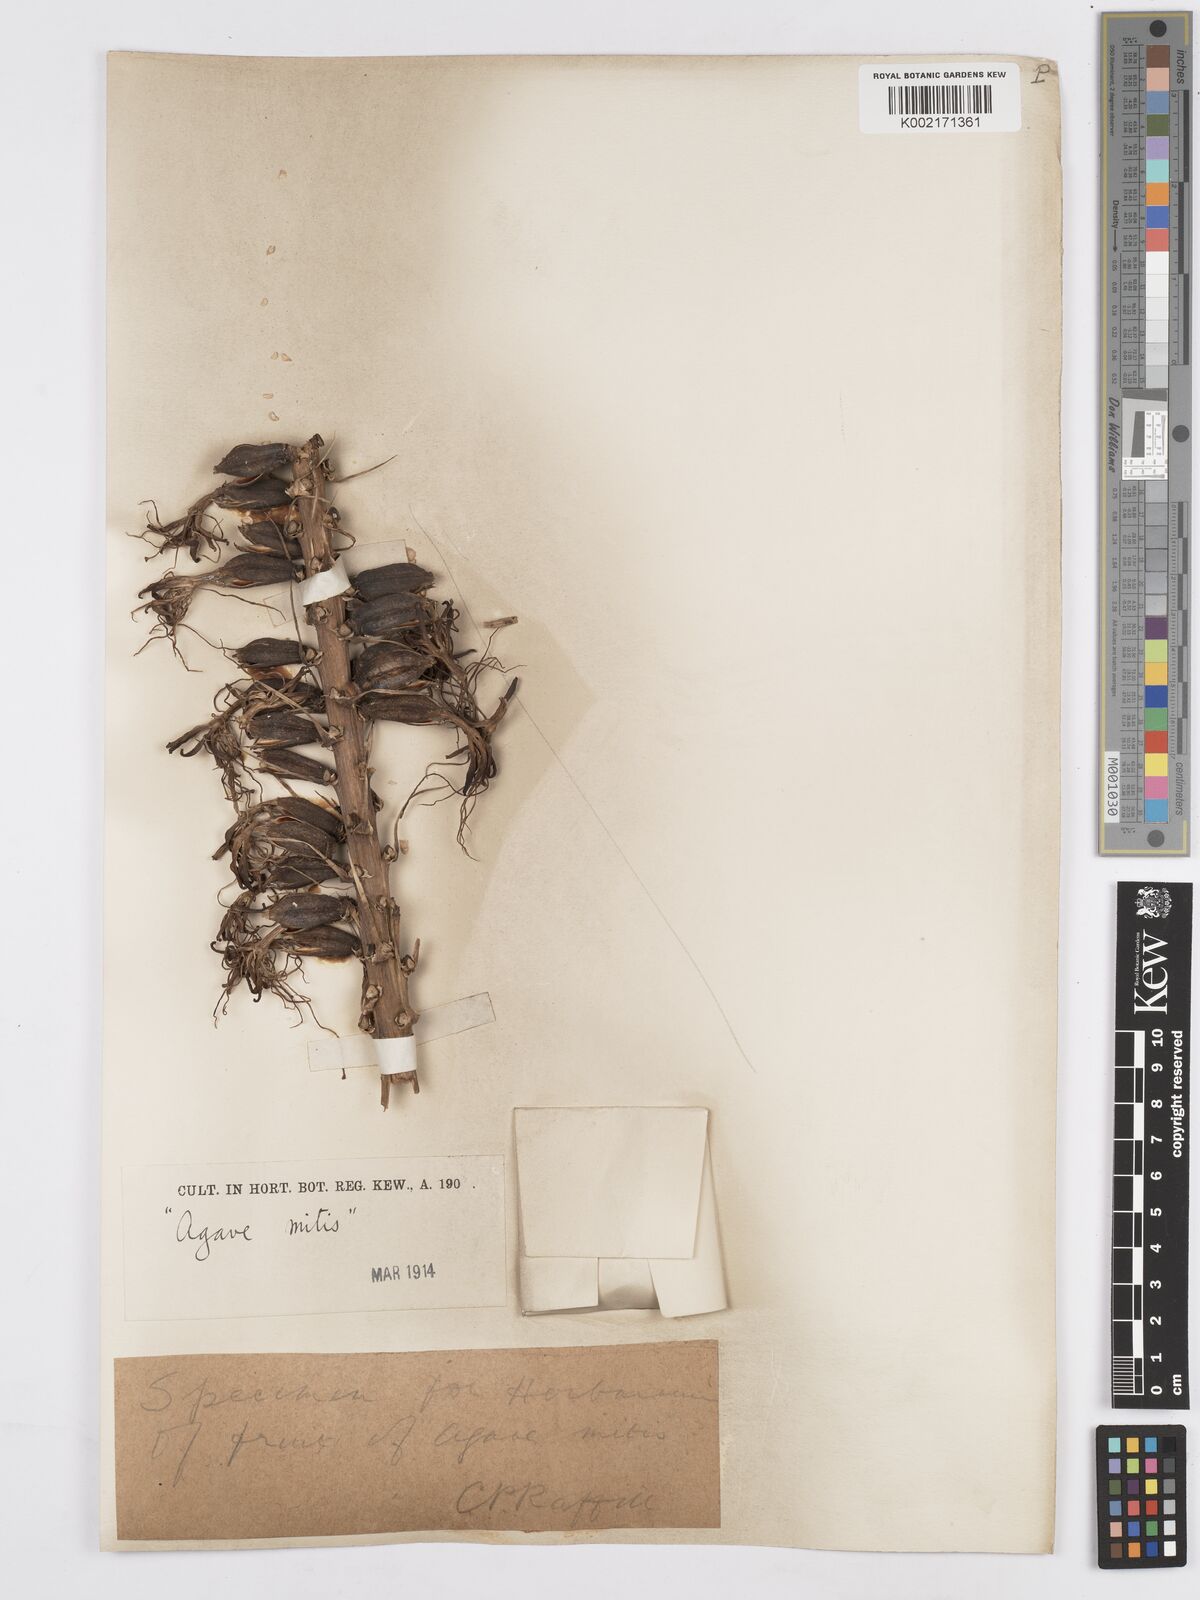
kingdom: Plantae
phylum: Tracheophyta
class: Liliopsida
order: Asparagales
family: Asparagaceae
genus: Agave
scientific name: Agave mitis
